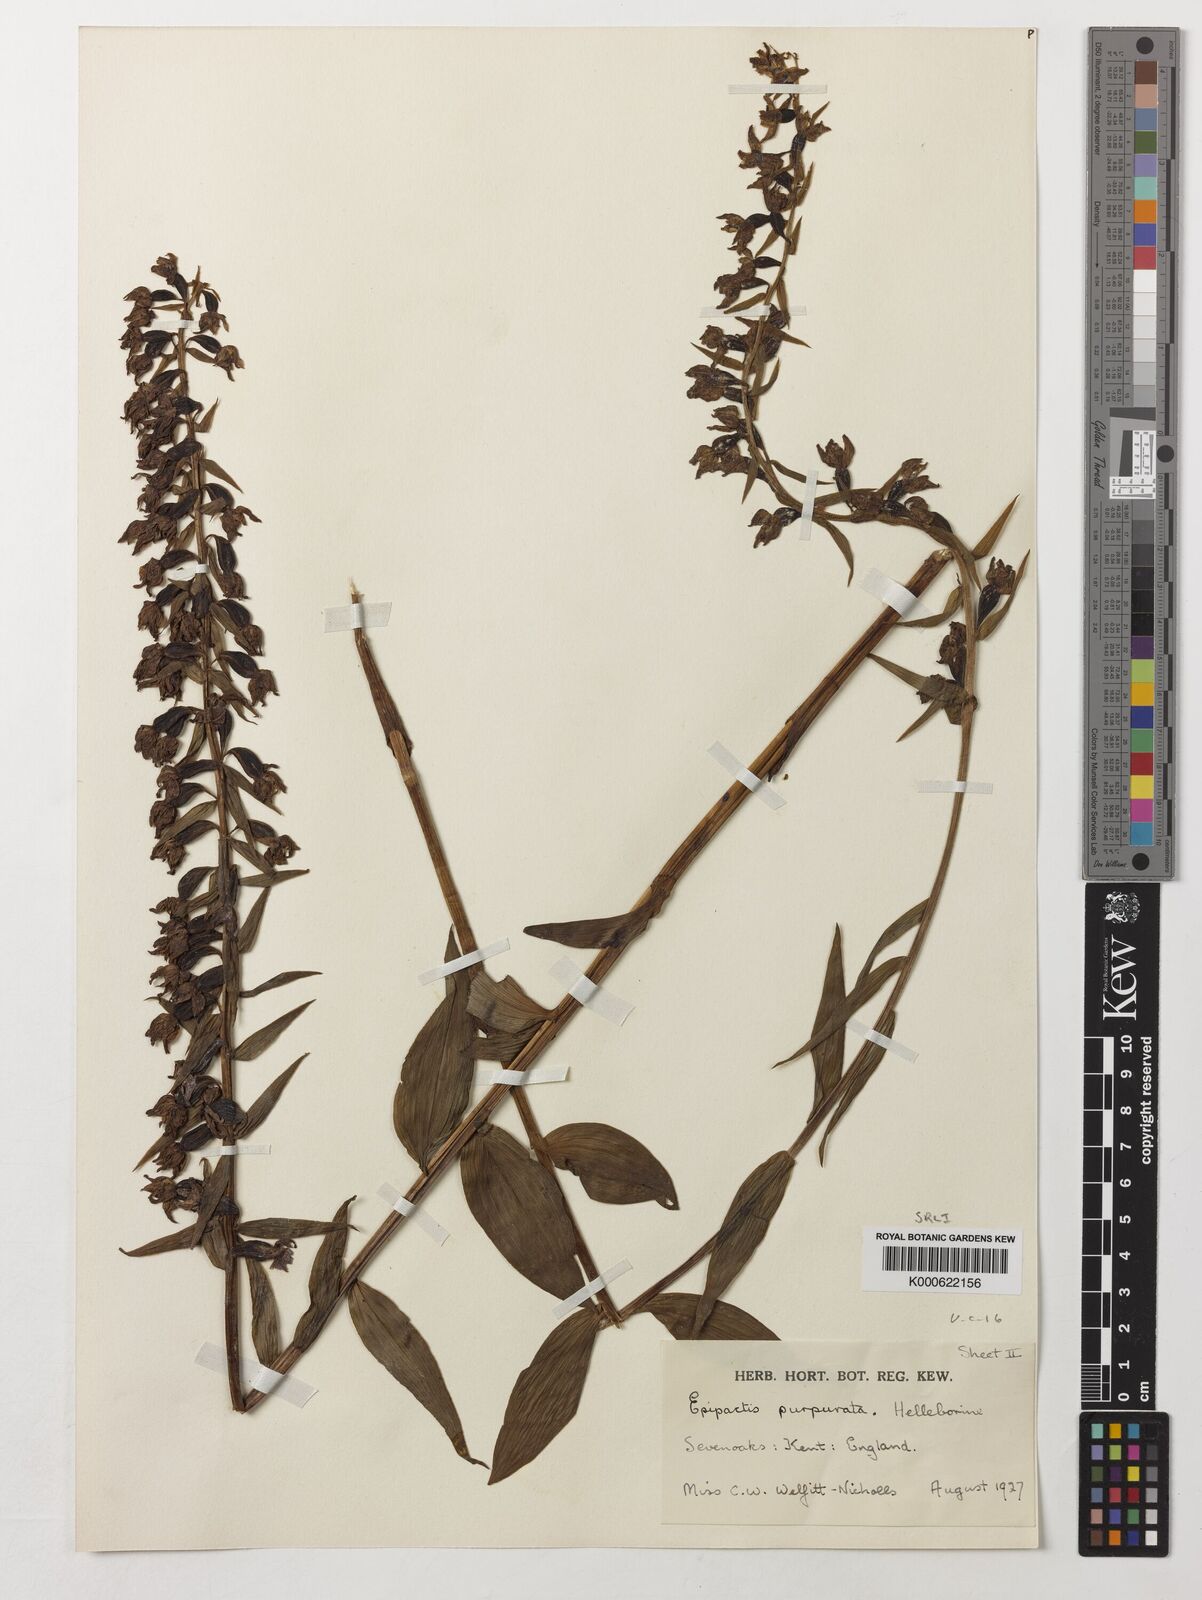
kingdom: Plantae
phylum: Tracheophyta
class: Liliopsida
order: Asparagales
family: Orchidaceae
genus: Epipactis
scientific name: Epipactis purpurata
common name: Violet helleborine
